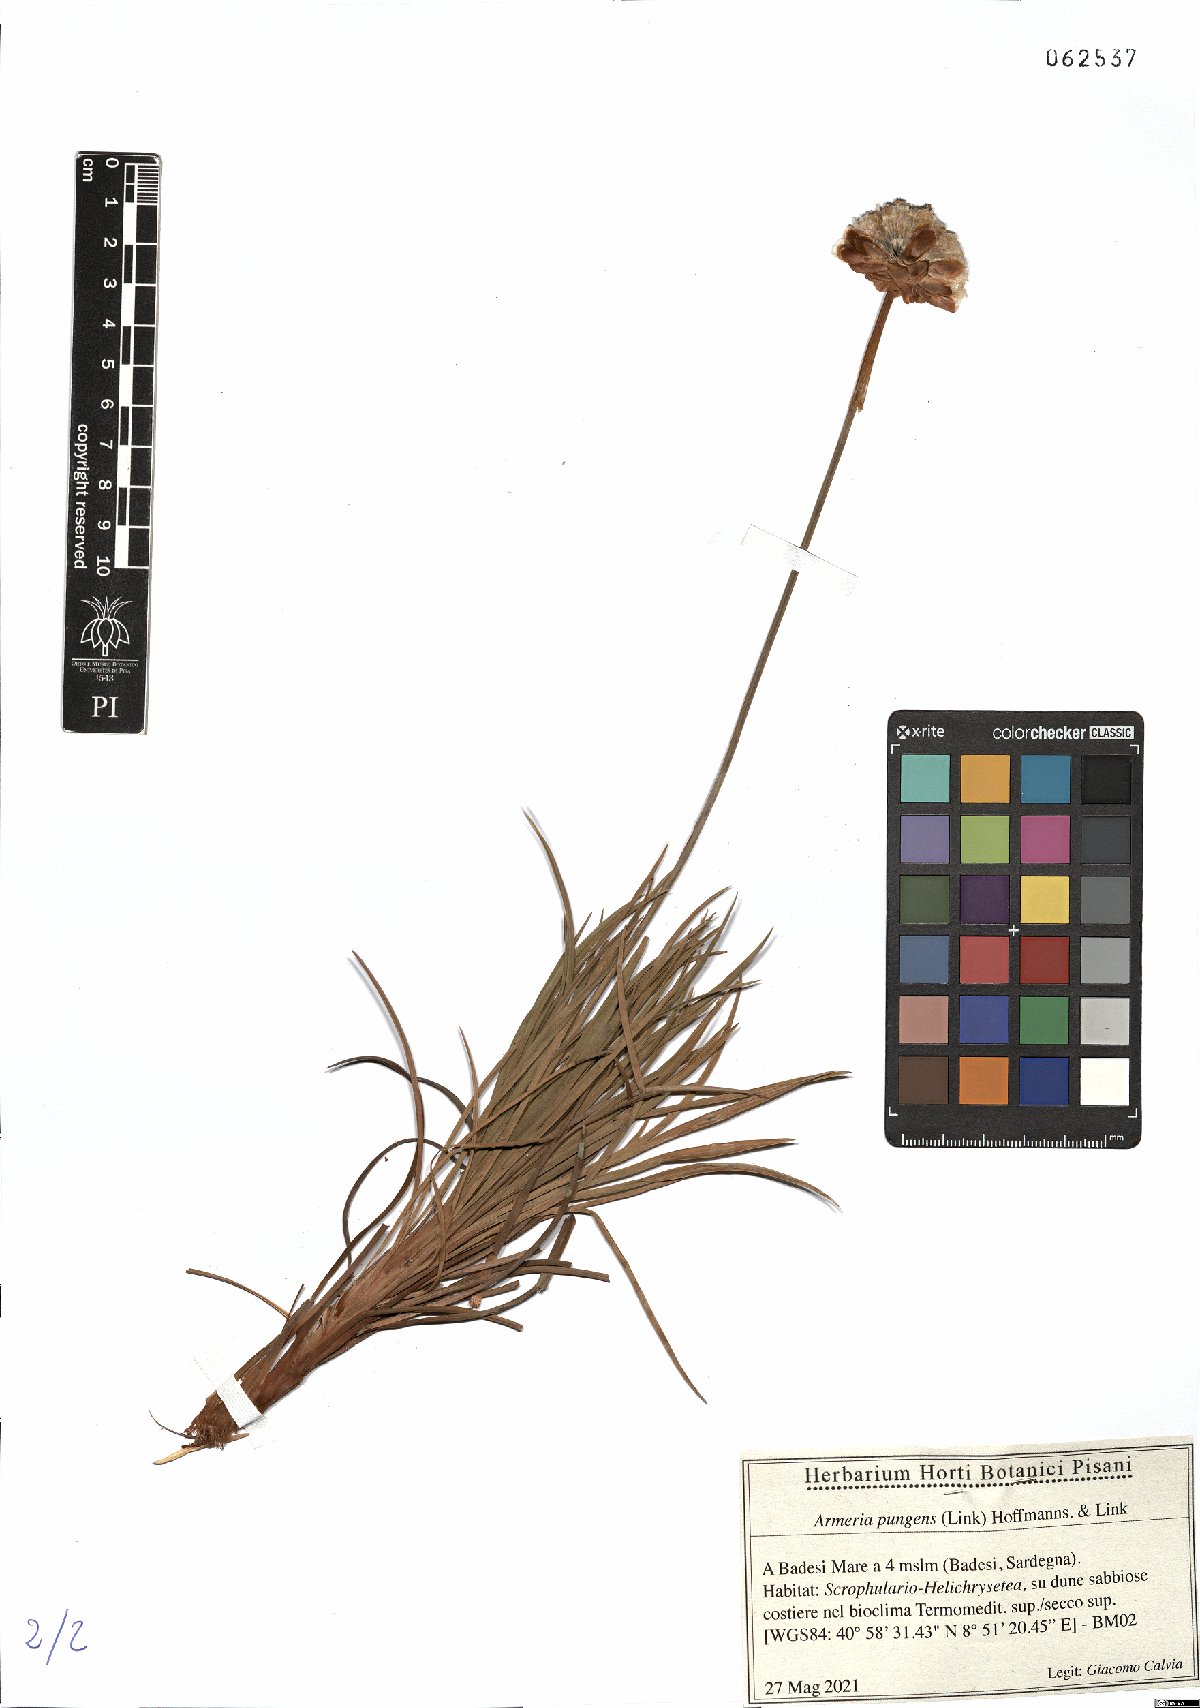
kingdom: Plantae
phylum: Tracheophyta
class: Magnoliopsida
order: Caryophyllales
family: Plumbaginaceae
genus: Armeria
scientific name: Armeria pungens
